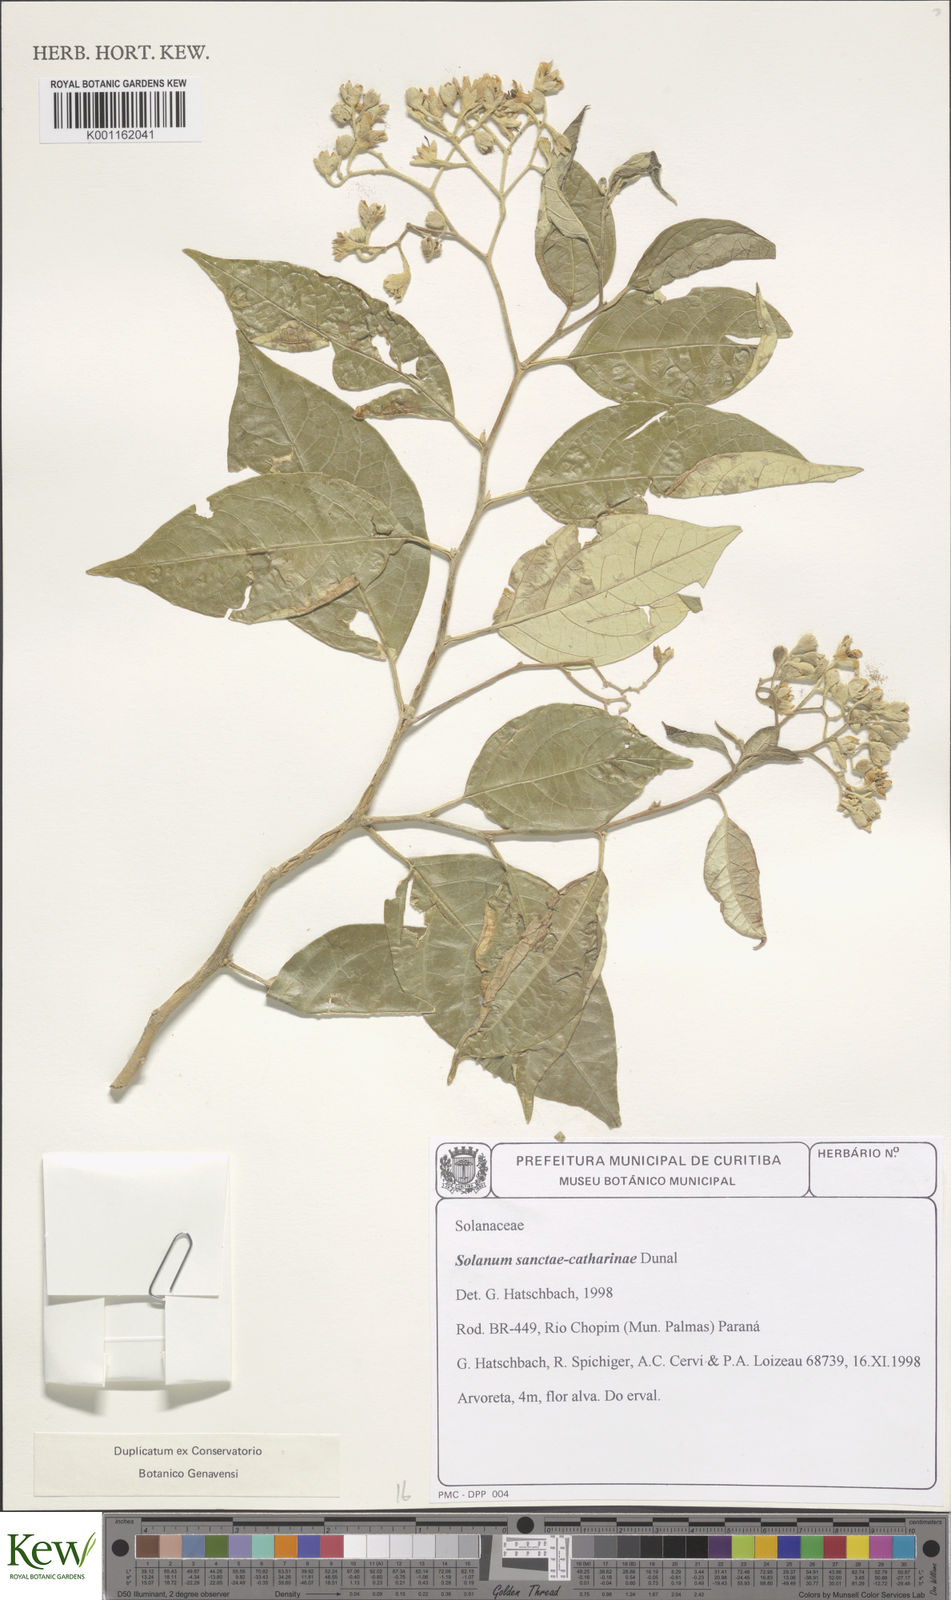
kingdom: Plantae
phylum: Tracheophyta
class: Magnoliopsida
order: Solanales
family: Solanaceae
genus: Solanum
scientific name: Solanum sanctae-catharinae
